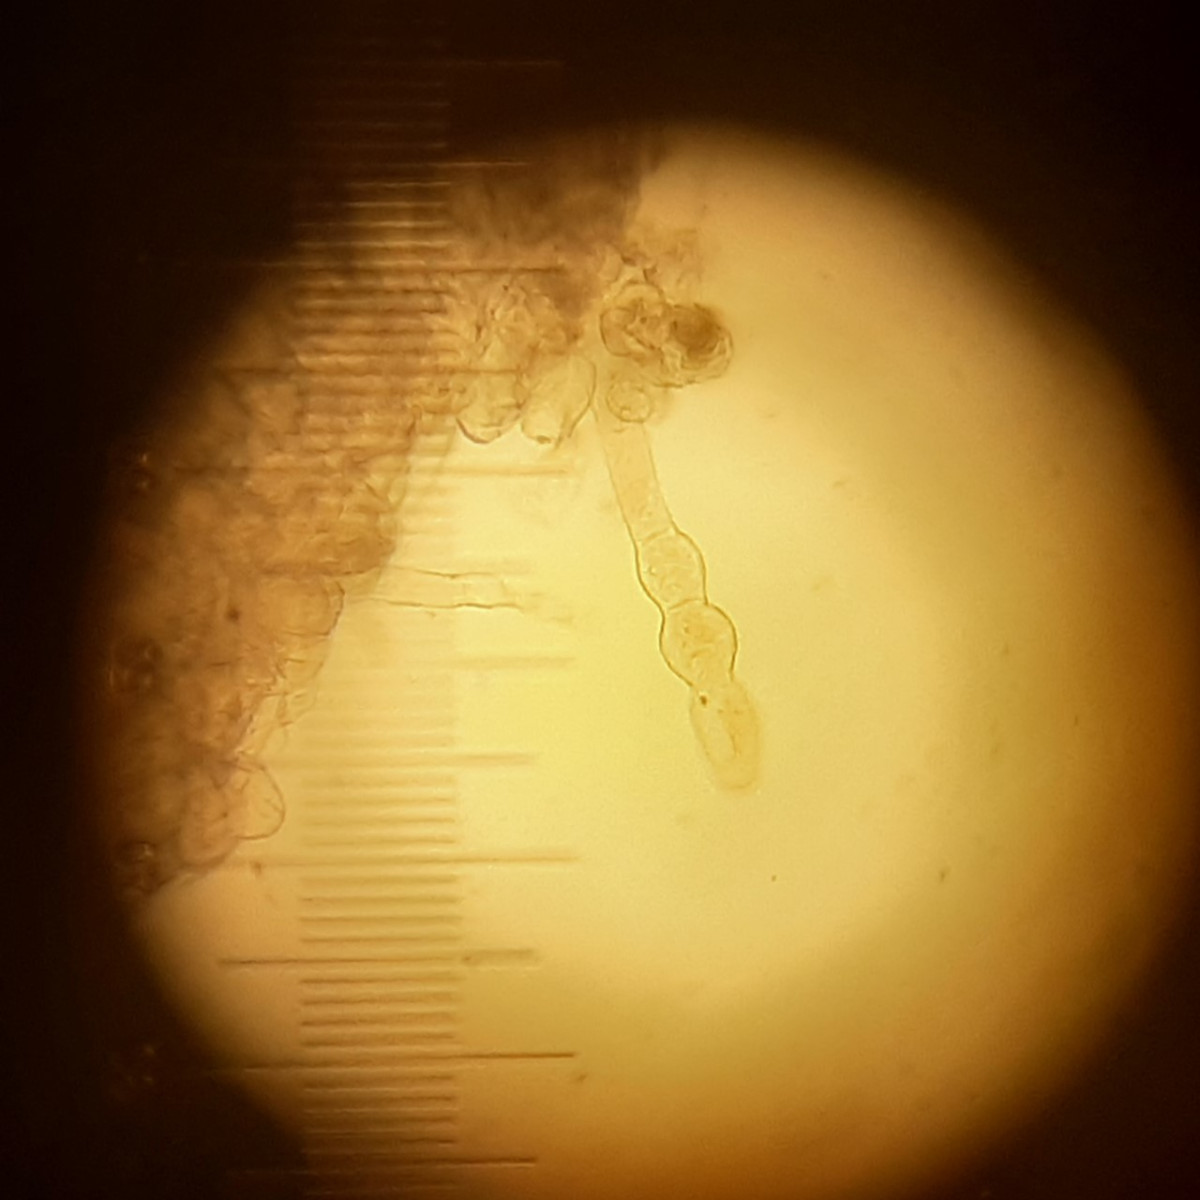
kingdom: Fungi
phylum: Ascomycota
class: Leotiomycetes
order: Helotiales
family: Erysiphaceae
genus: Golovinomyces
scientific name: Golovinomyces montagnei
